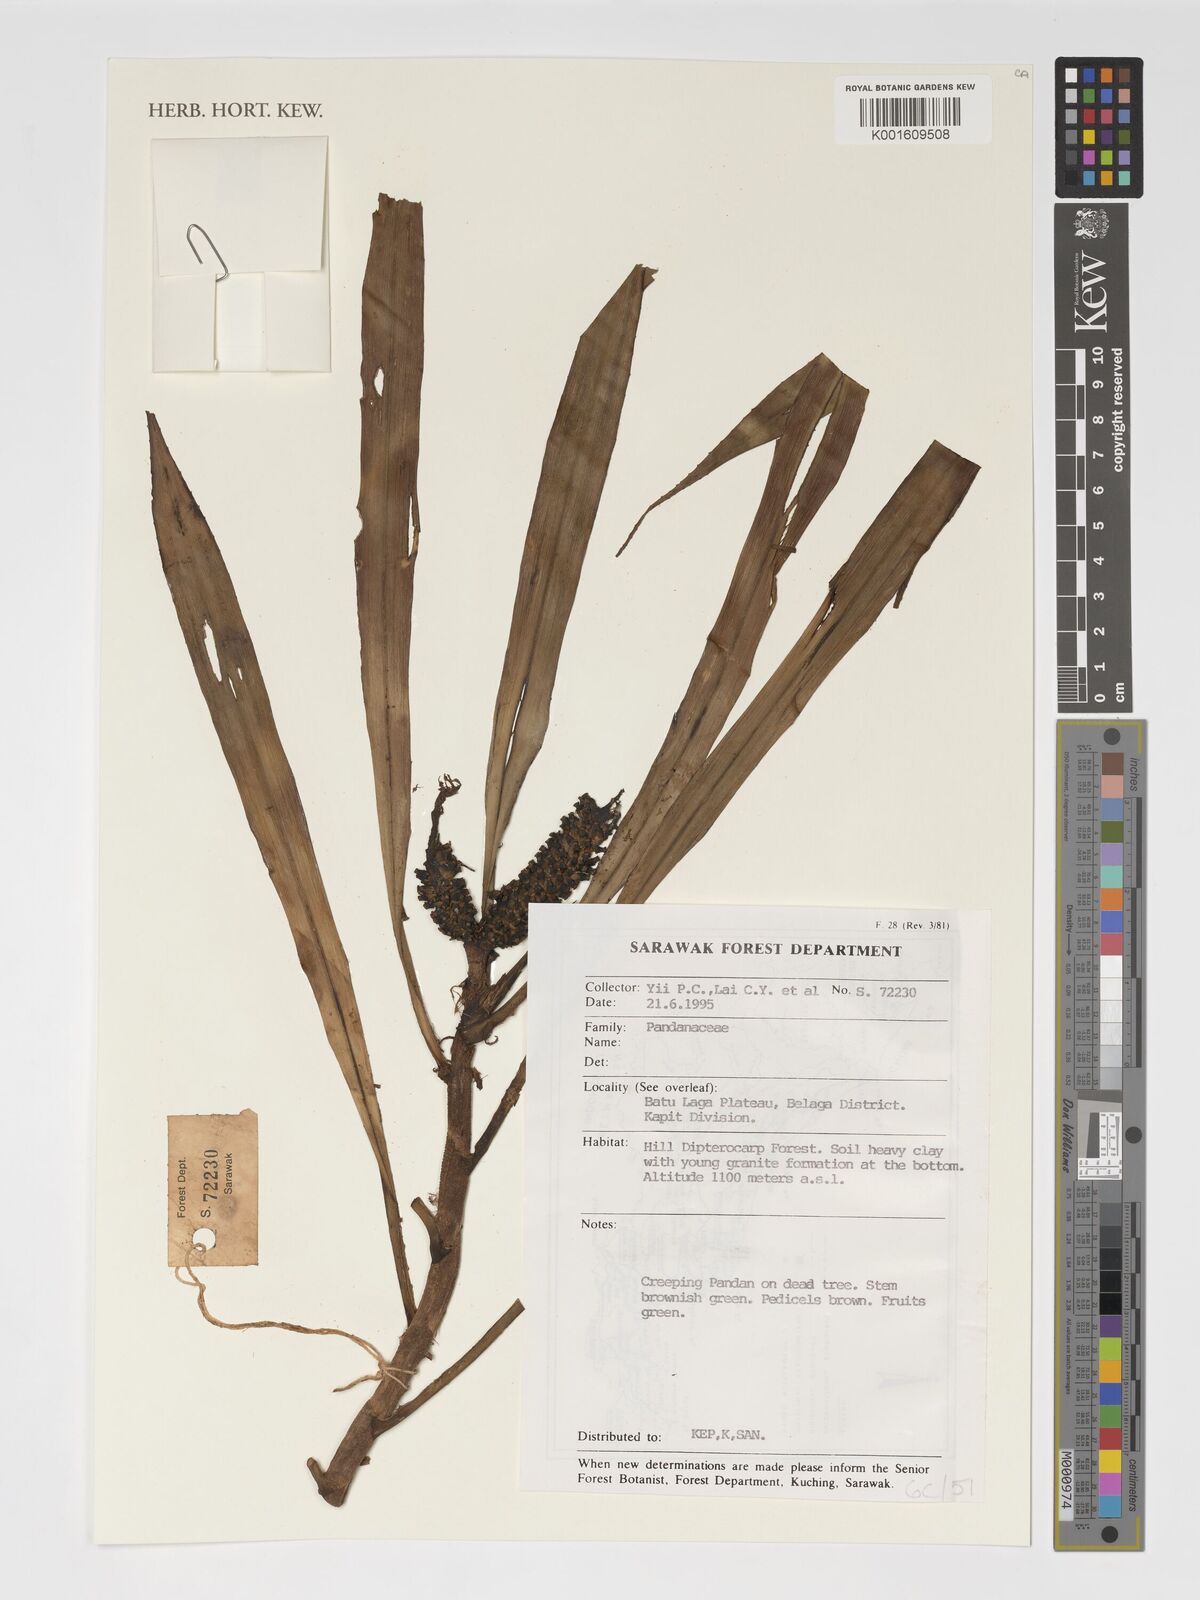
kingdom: Plantae
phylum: Tracheophyta
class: Liliopsida
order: Pandanales
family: Pandanaceae
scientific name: Pandanaceae
